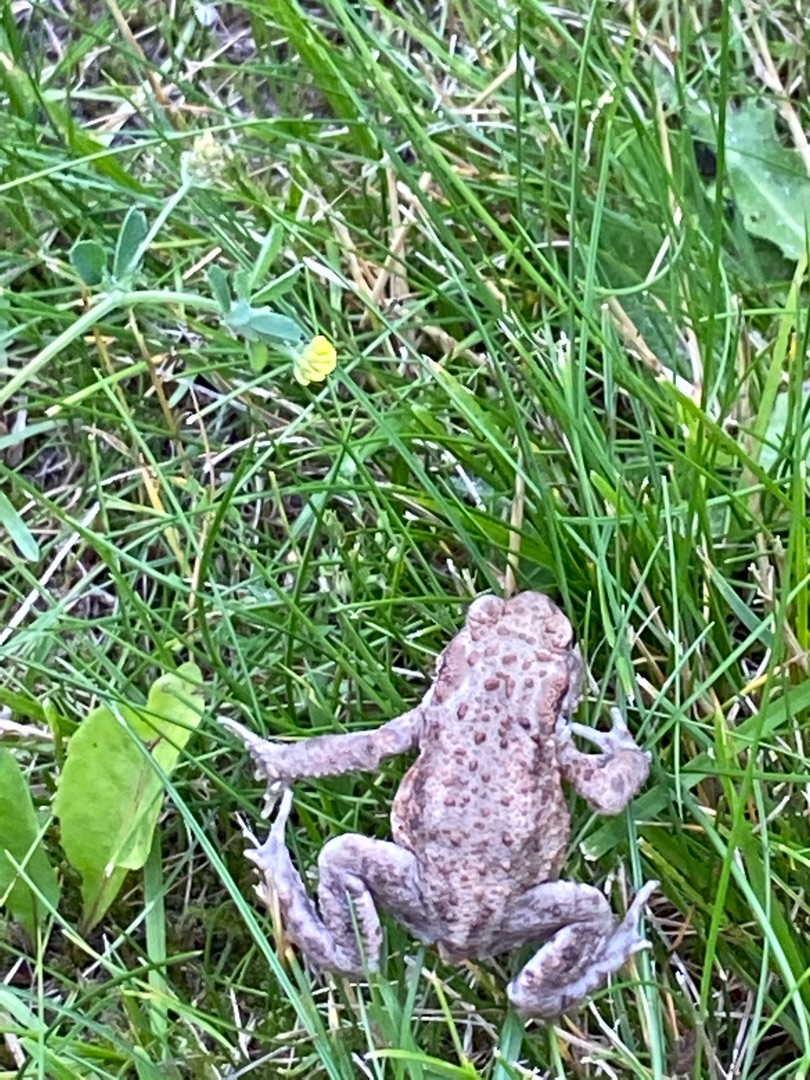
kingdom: Animalia
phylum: Chordata
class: Amphibia
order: Anura
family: Bufonidae
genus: Bufo
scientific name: Bufo bufo
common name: Skrubtudse
